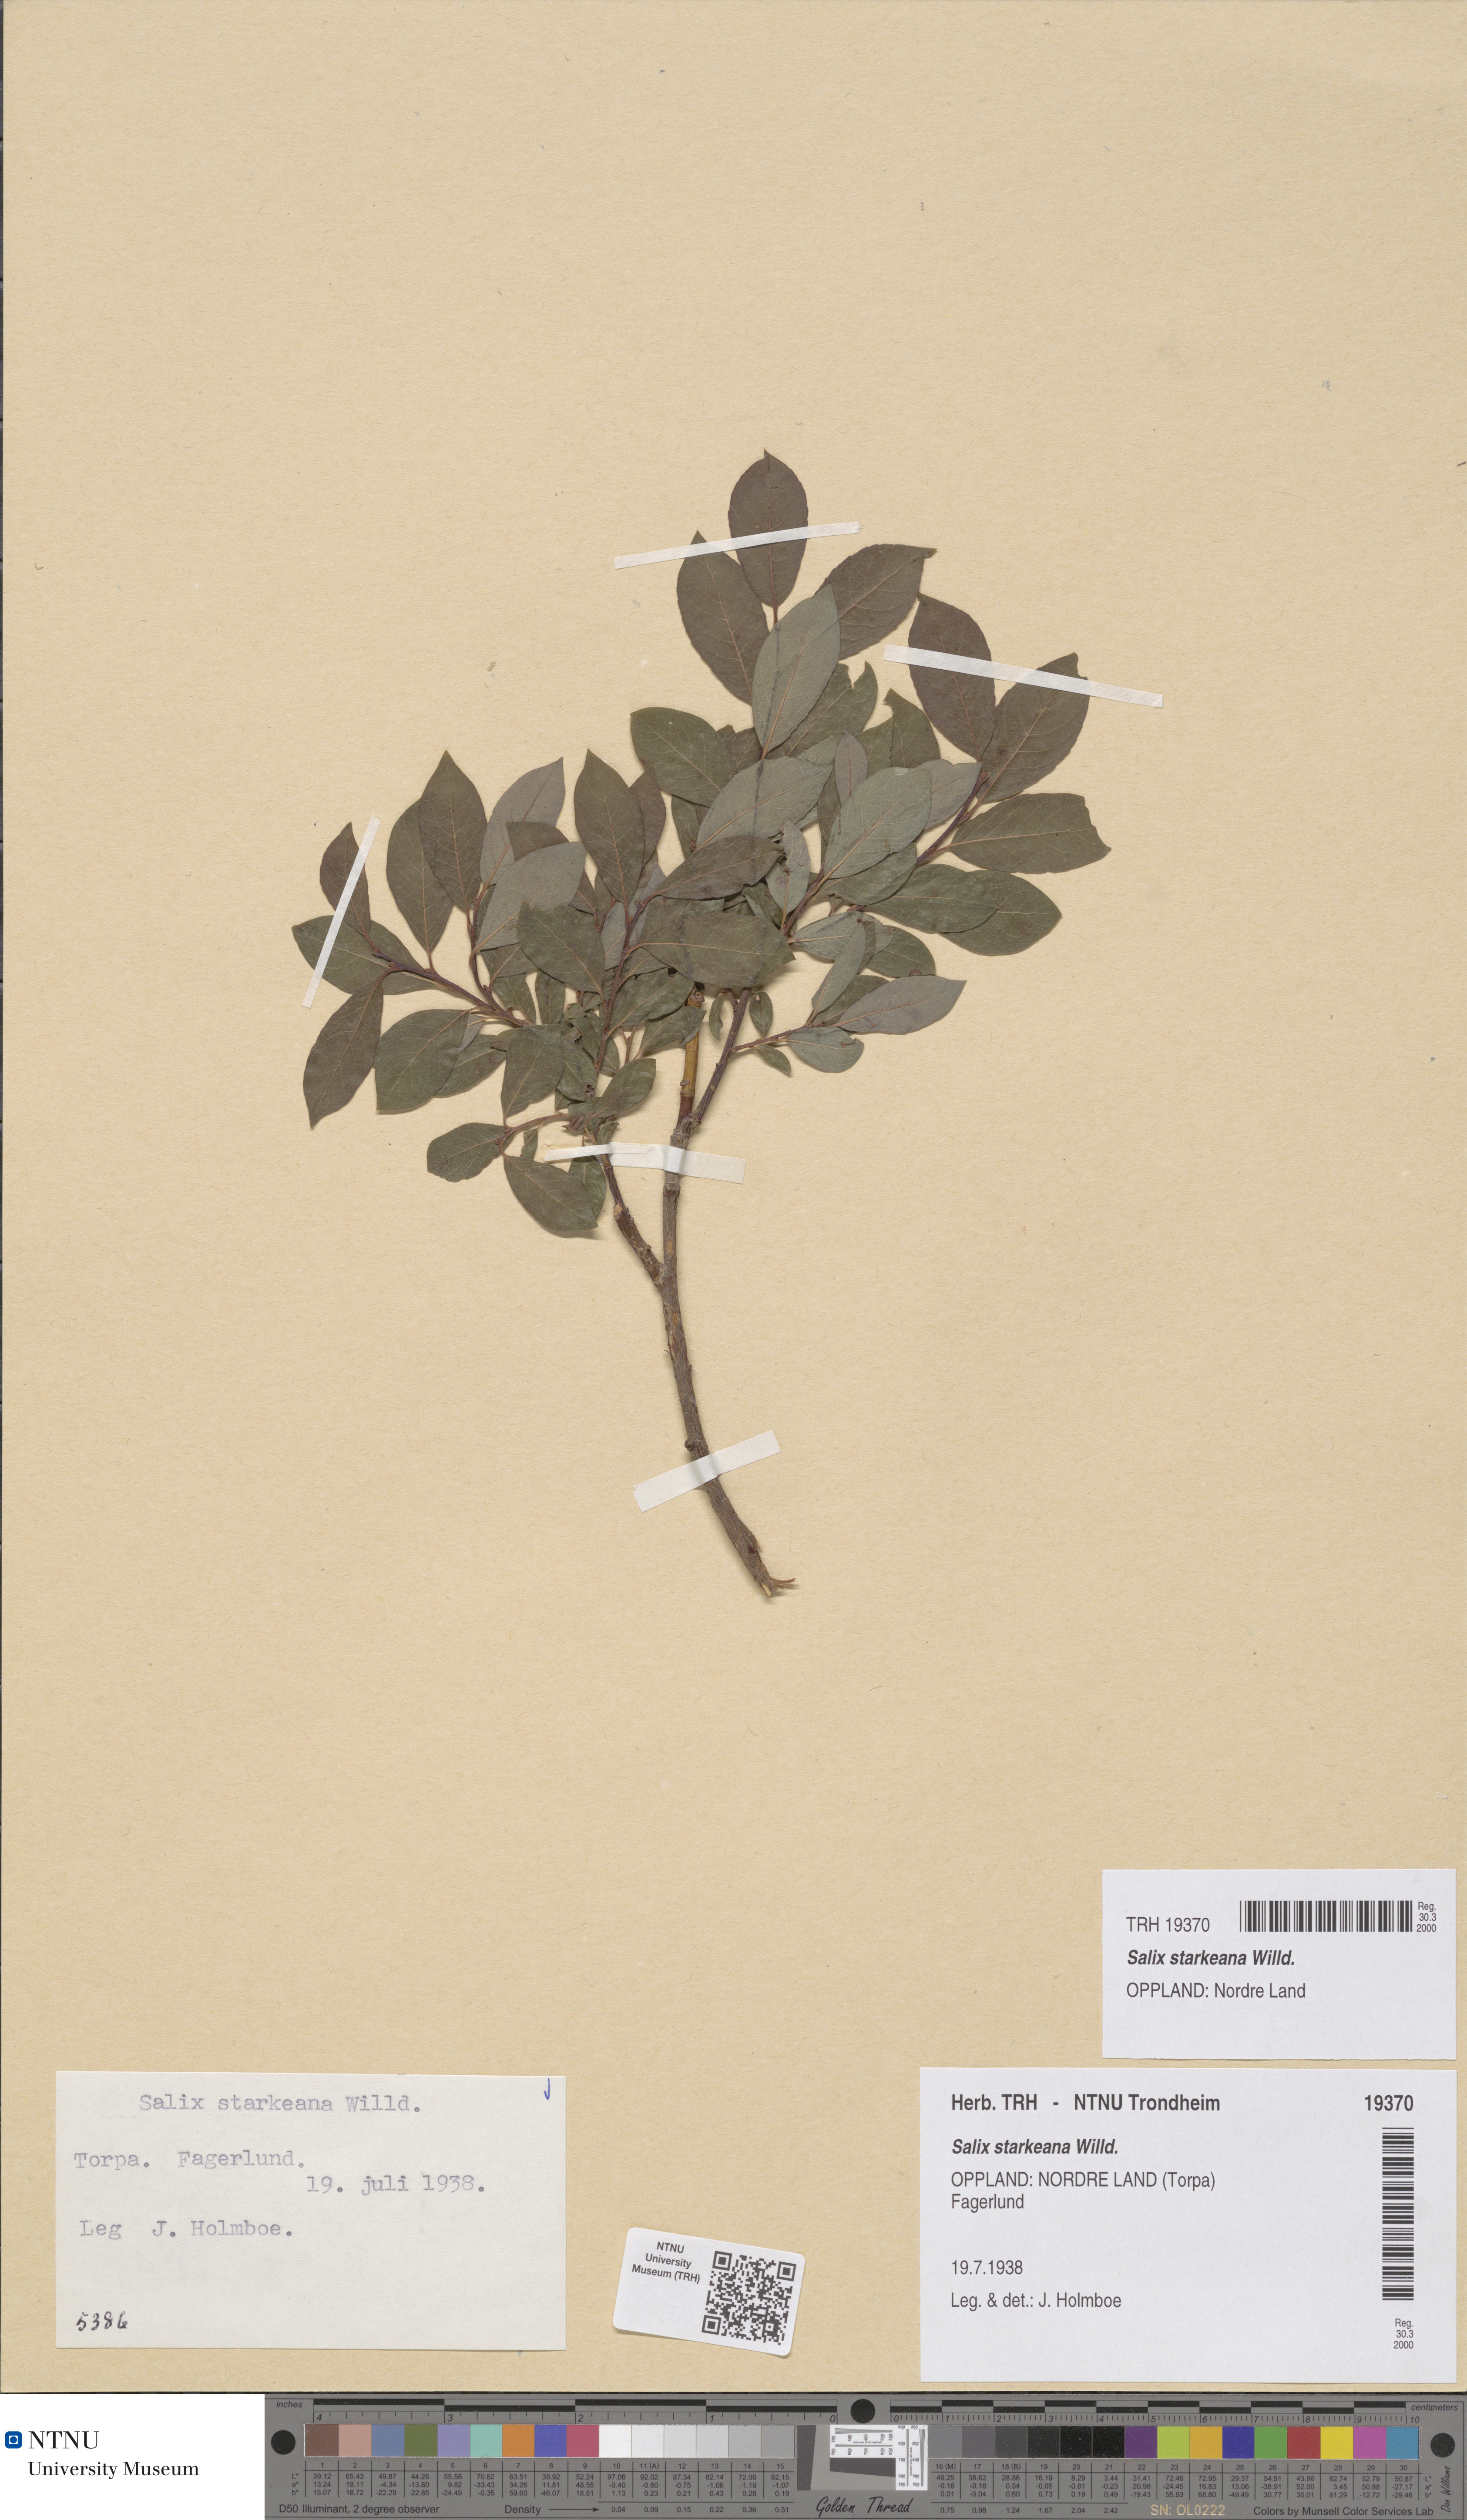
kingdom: Plantae
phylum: Tracheophyta
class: Magnoliopsida
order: Malpighiales
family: Salicaceae
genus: Salix
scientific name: Salix starkeana
